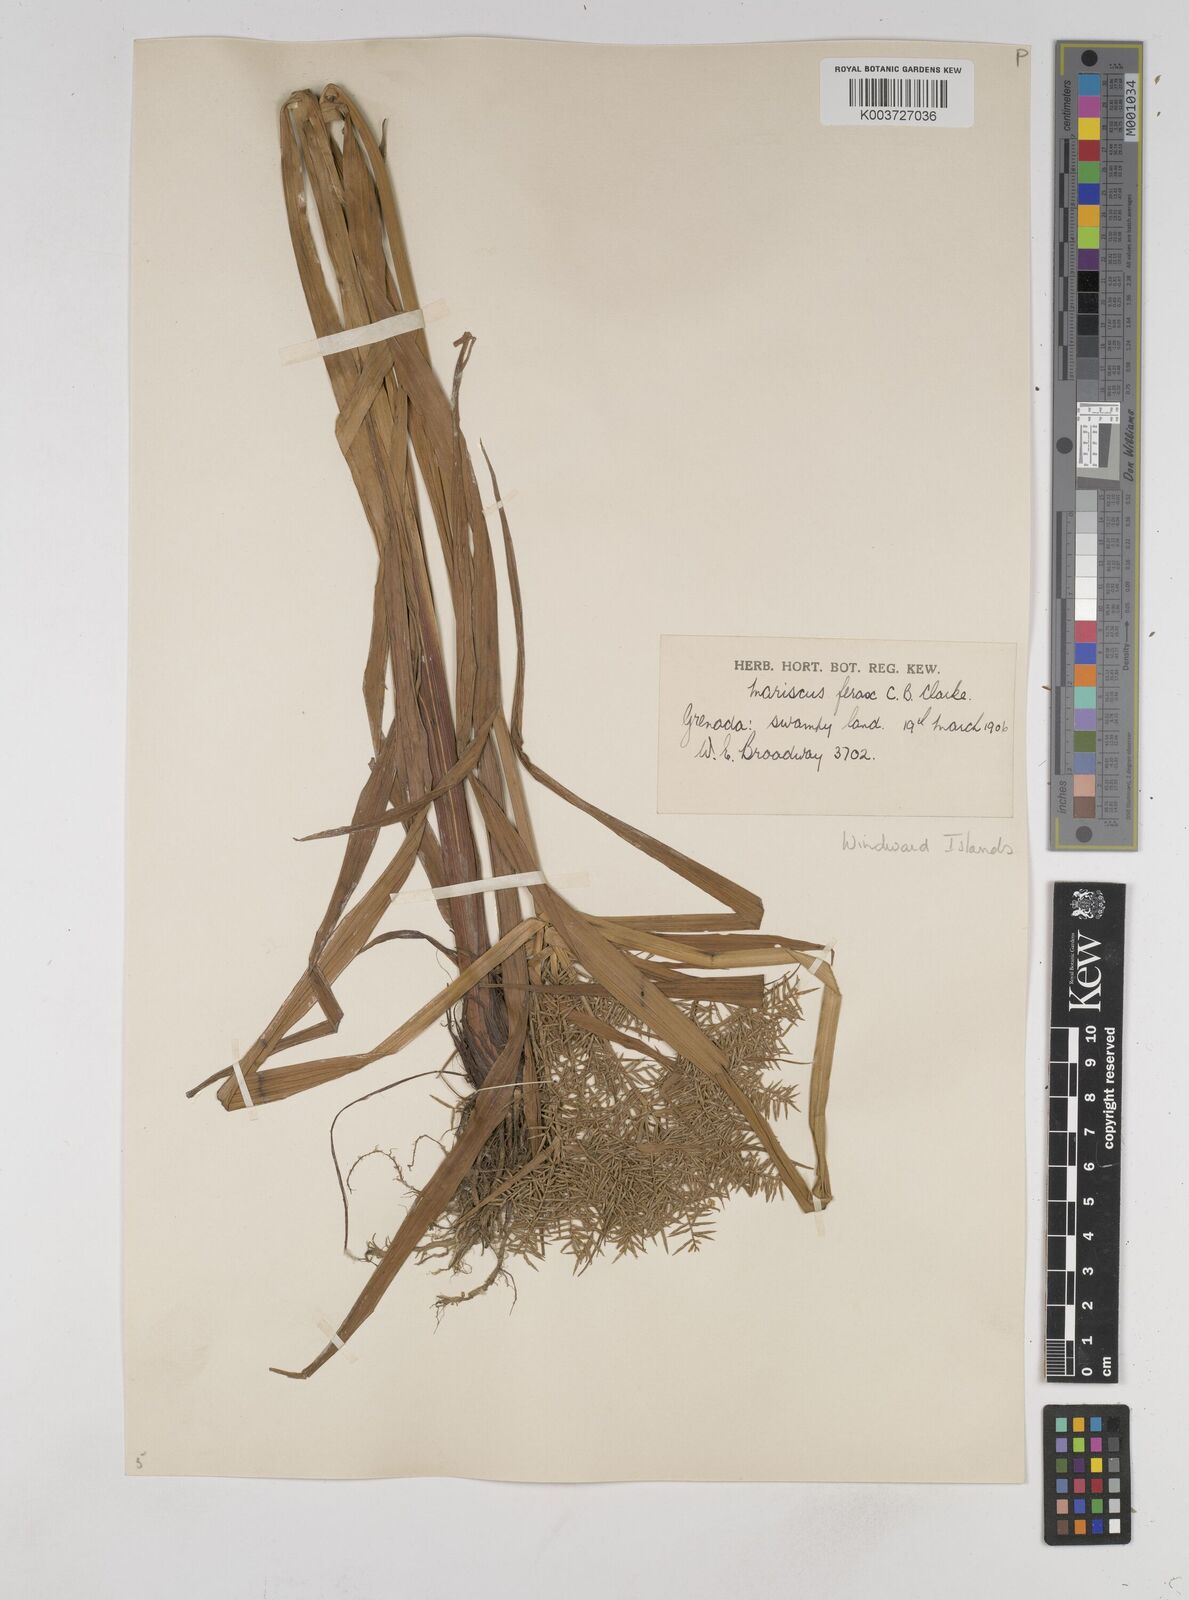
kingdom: Plantae
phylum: Tracheophyta
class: Liliopsida
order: Poales
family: Cyperaceae
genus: Cyperus
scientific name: Cyperus odoratus
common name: Fragrant flatsedge
